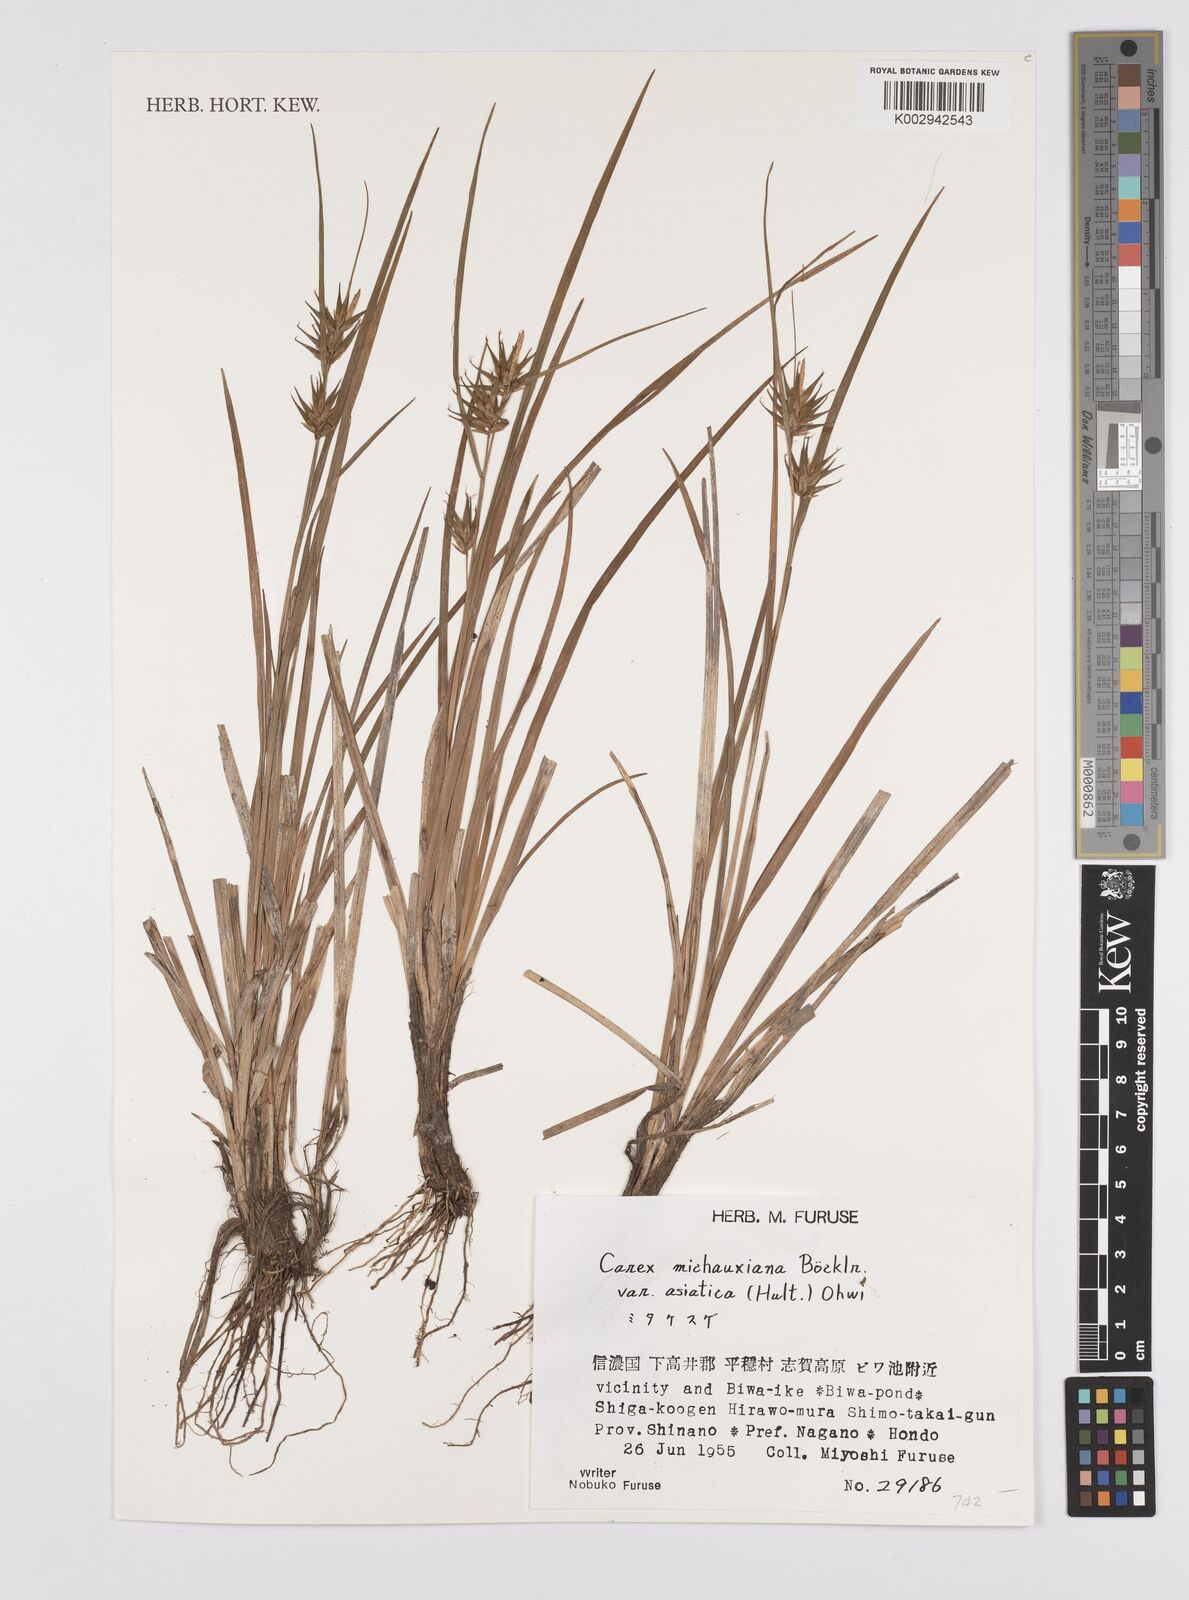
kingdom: Plantae
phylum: Tracheophyta
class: Liliopsida
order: Poales
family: Cyperaceae
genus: Carex
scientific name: Carex michauxiana
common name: Michaux's sedge
